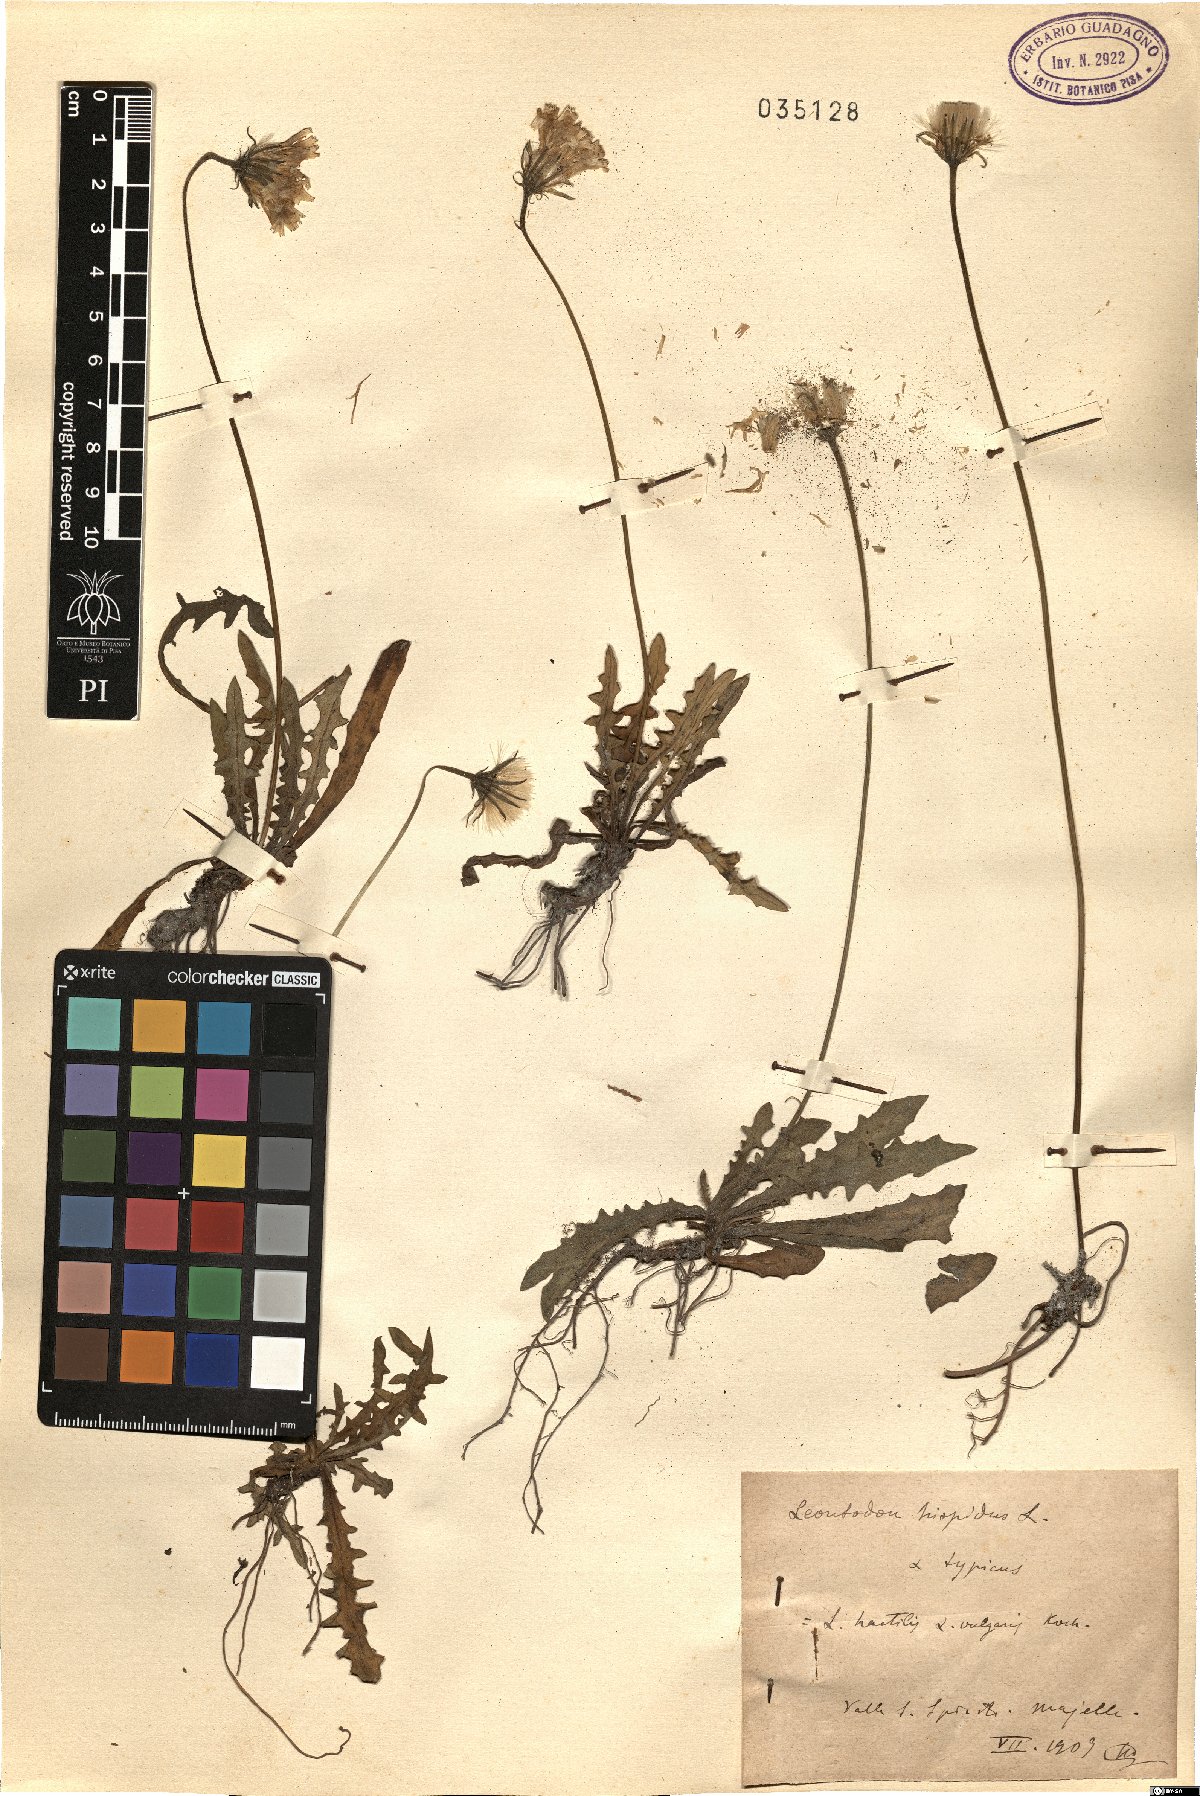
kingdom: Plantae
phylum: Tracheophyta
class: Magnoliopsida
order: Asterales
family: Asteraceae
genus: Leontodon
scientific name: Leontodon hispidus
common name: Rough hawkbit
